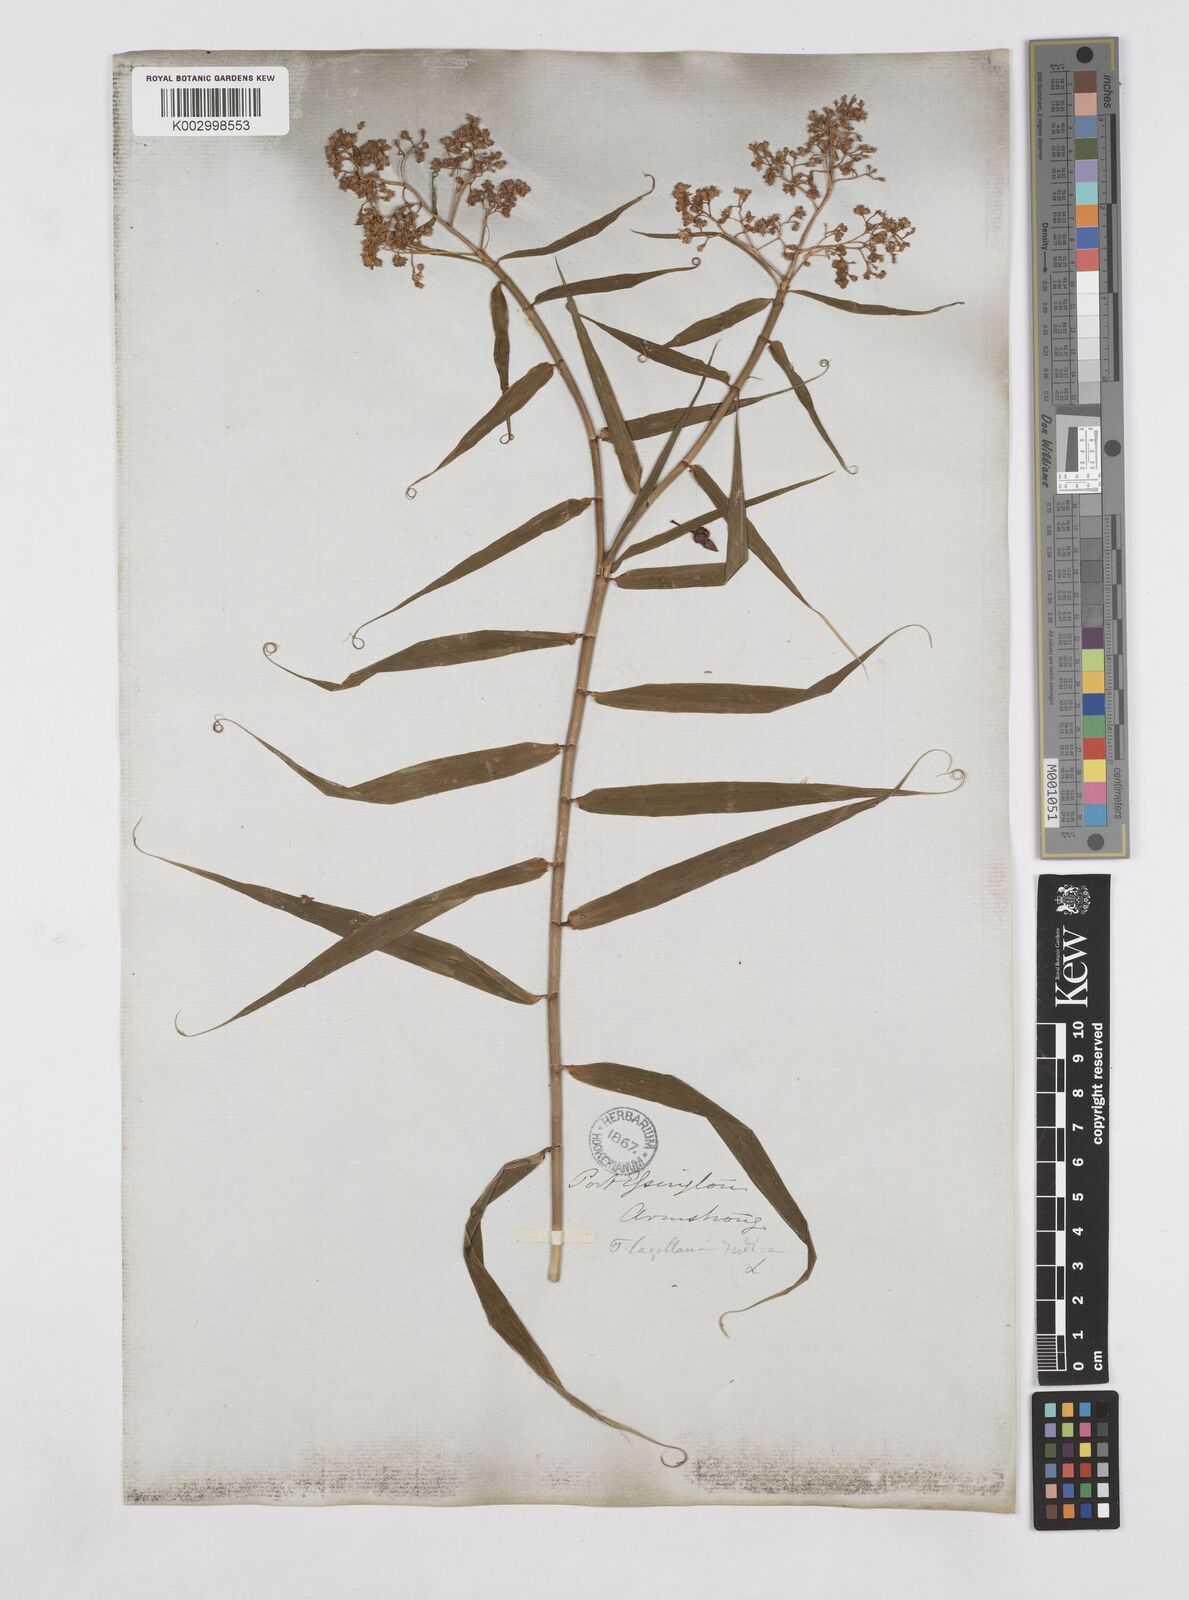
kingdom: Plantae
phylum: Tracheophyta
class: Liliopsida
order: Poales
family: Flagellariaceae
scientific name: Flagellariaceae
